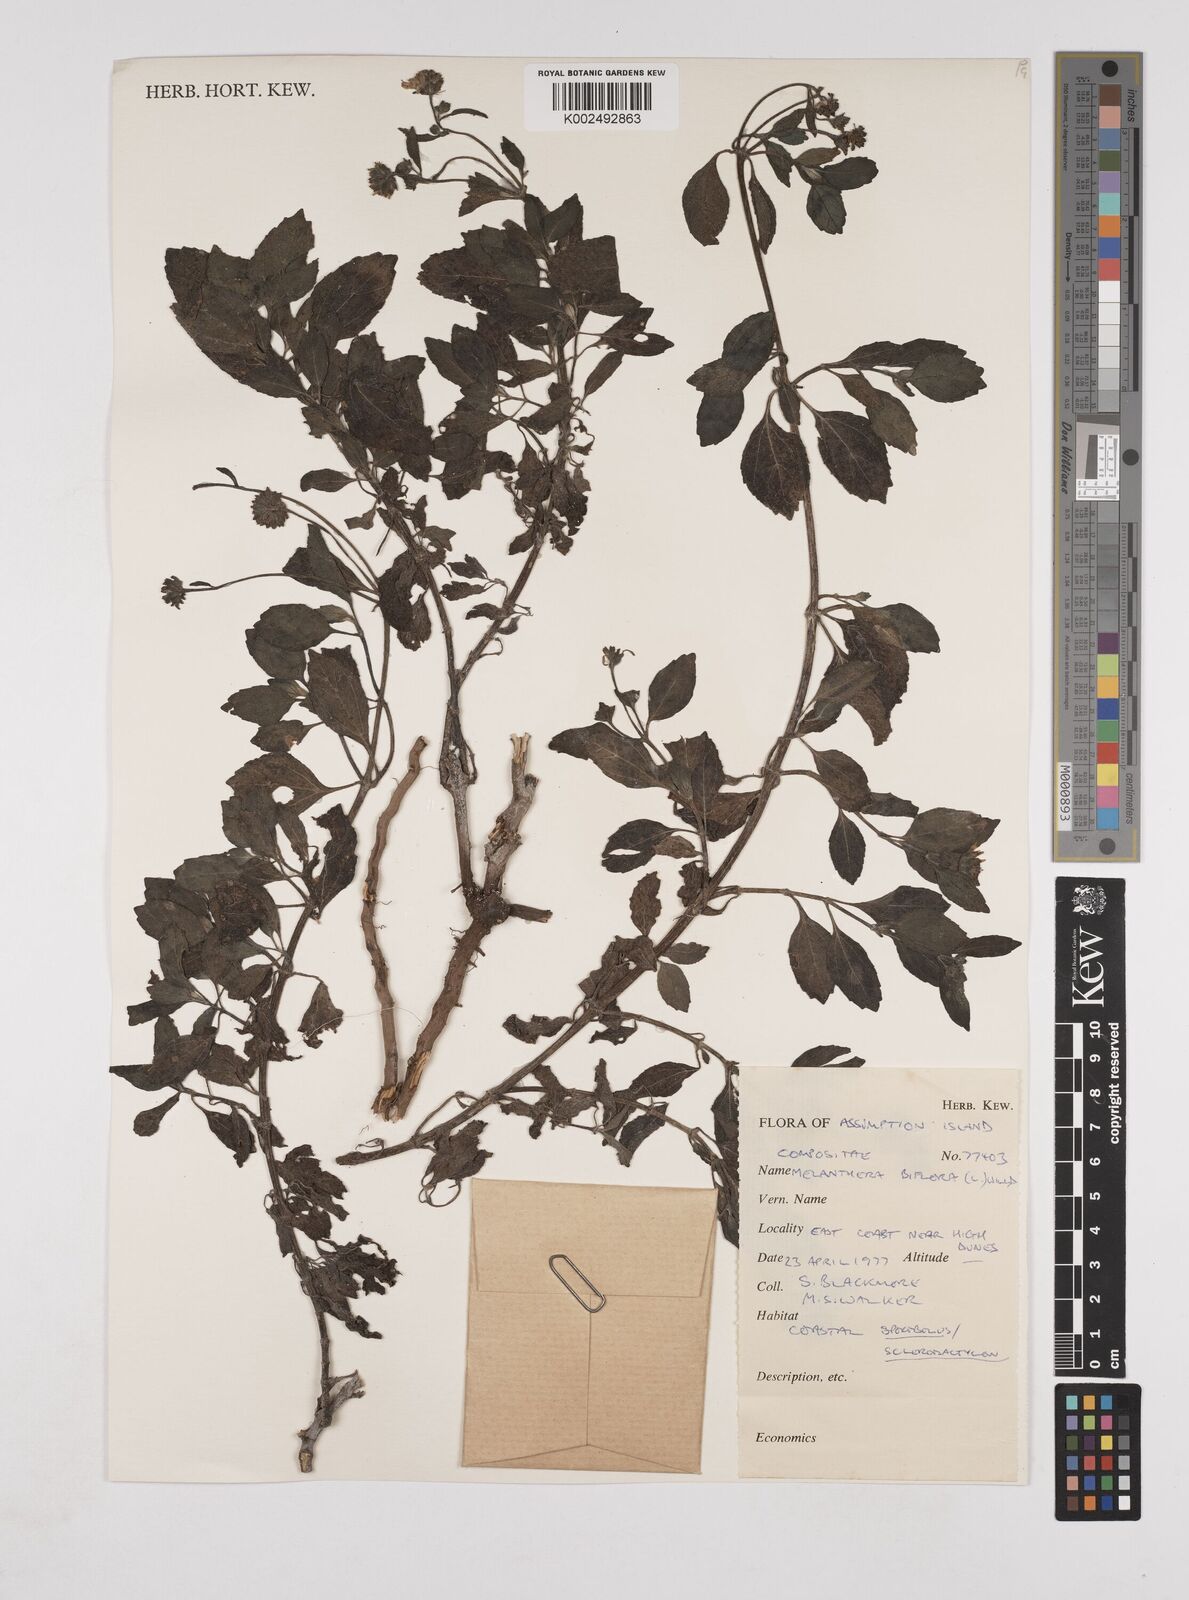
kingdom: Plantae
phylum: Tracheophyta
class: Magnoliopsida
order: Asterales
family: Asteraceae
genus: Wollastonia
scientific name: Wollastonia biflora
